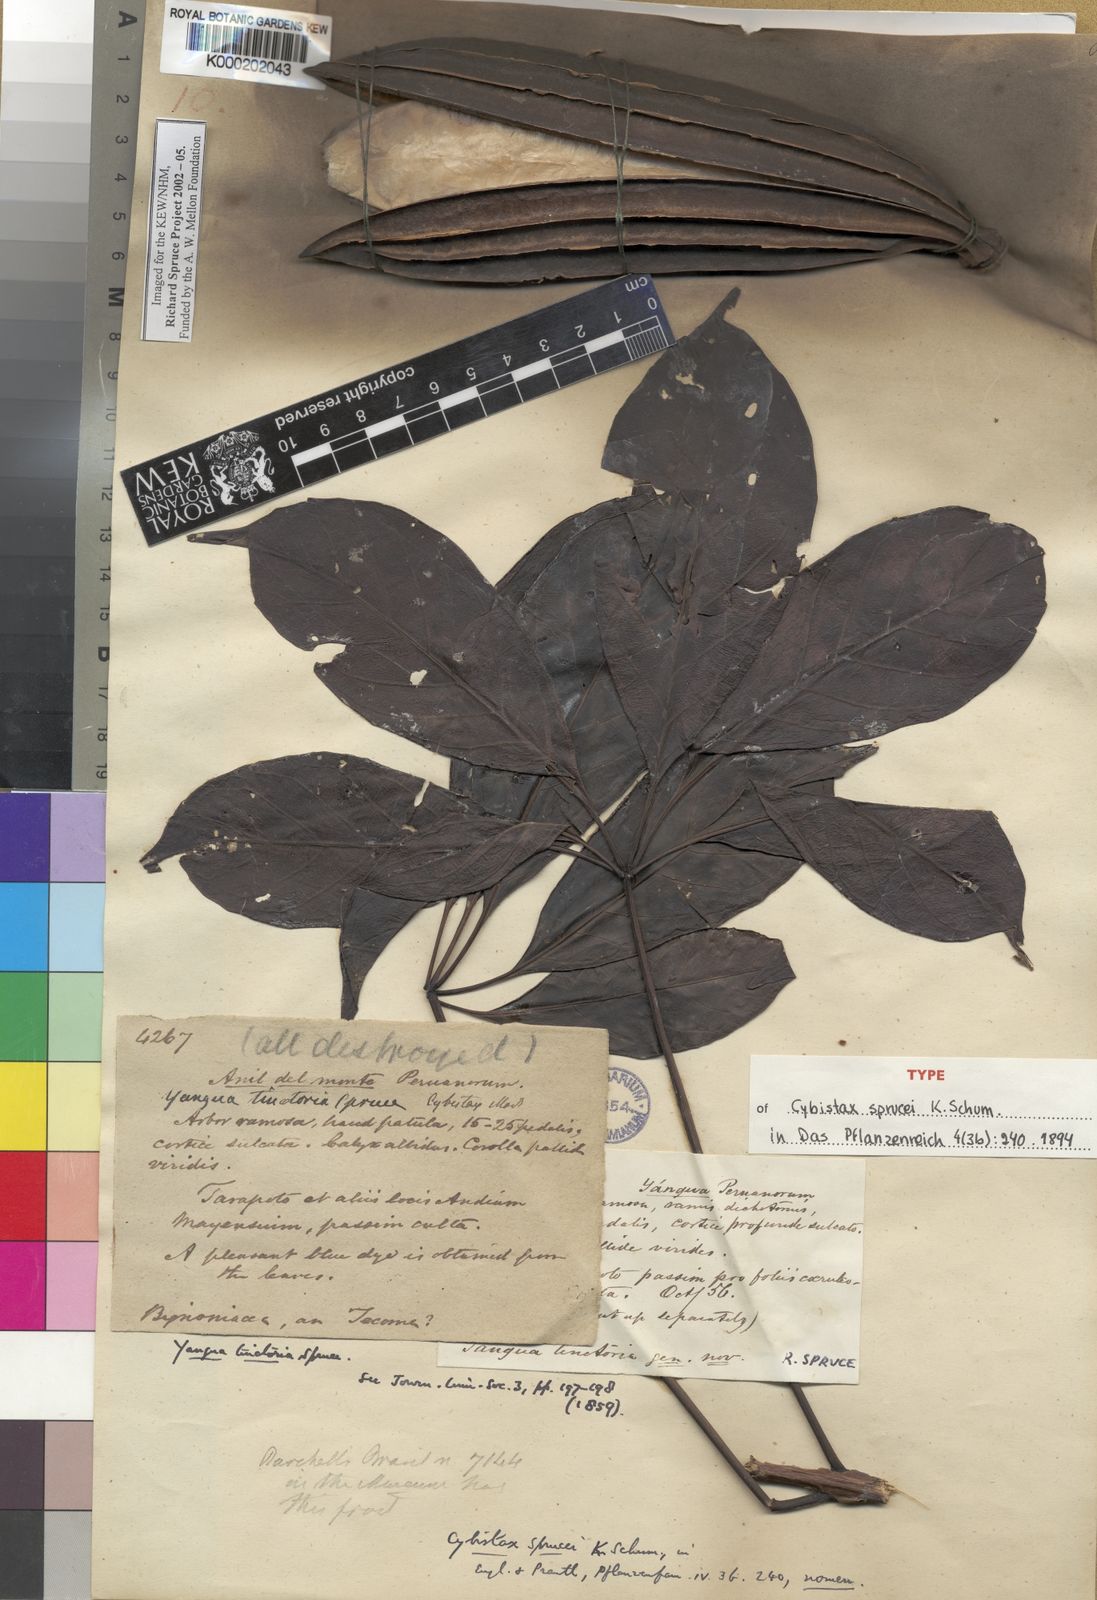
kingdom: Plantae
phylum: Tracheophyta
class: Magnoliopsida
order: Lamiales
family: Bignoniaceae
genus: Cybistax
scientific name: Cybistax antisyphilitica
